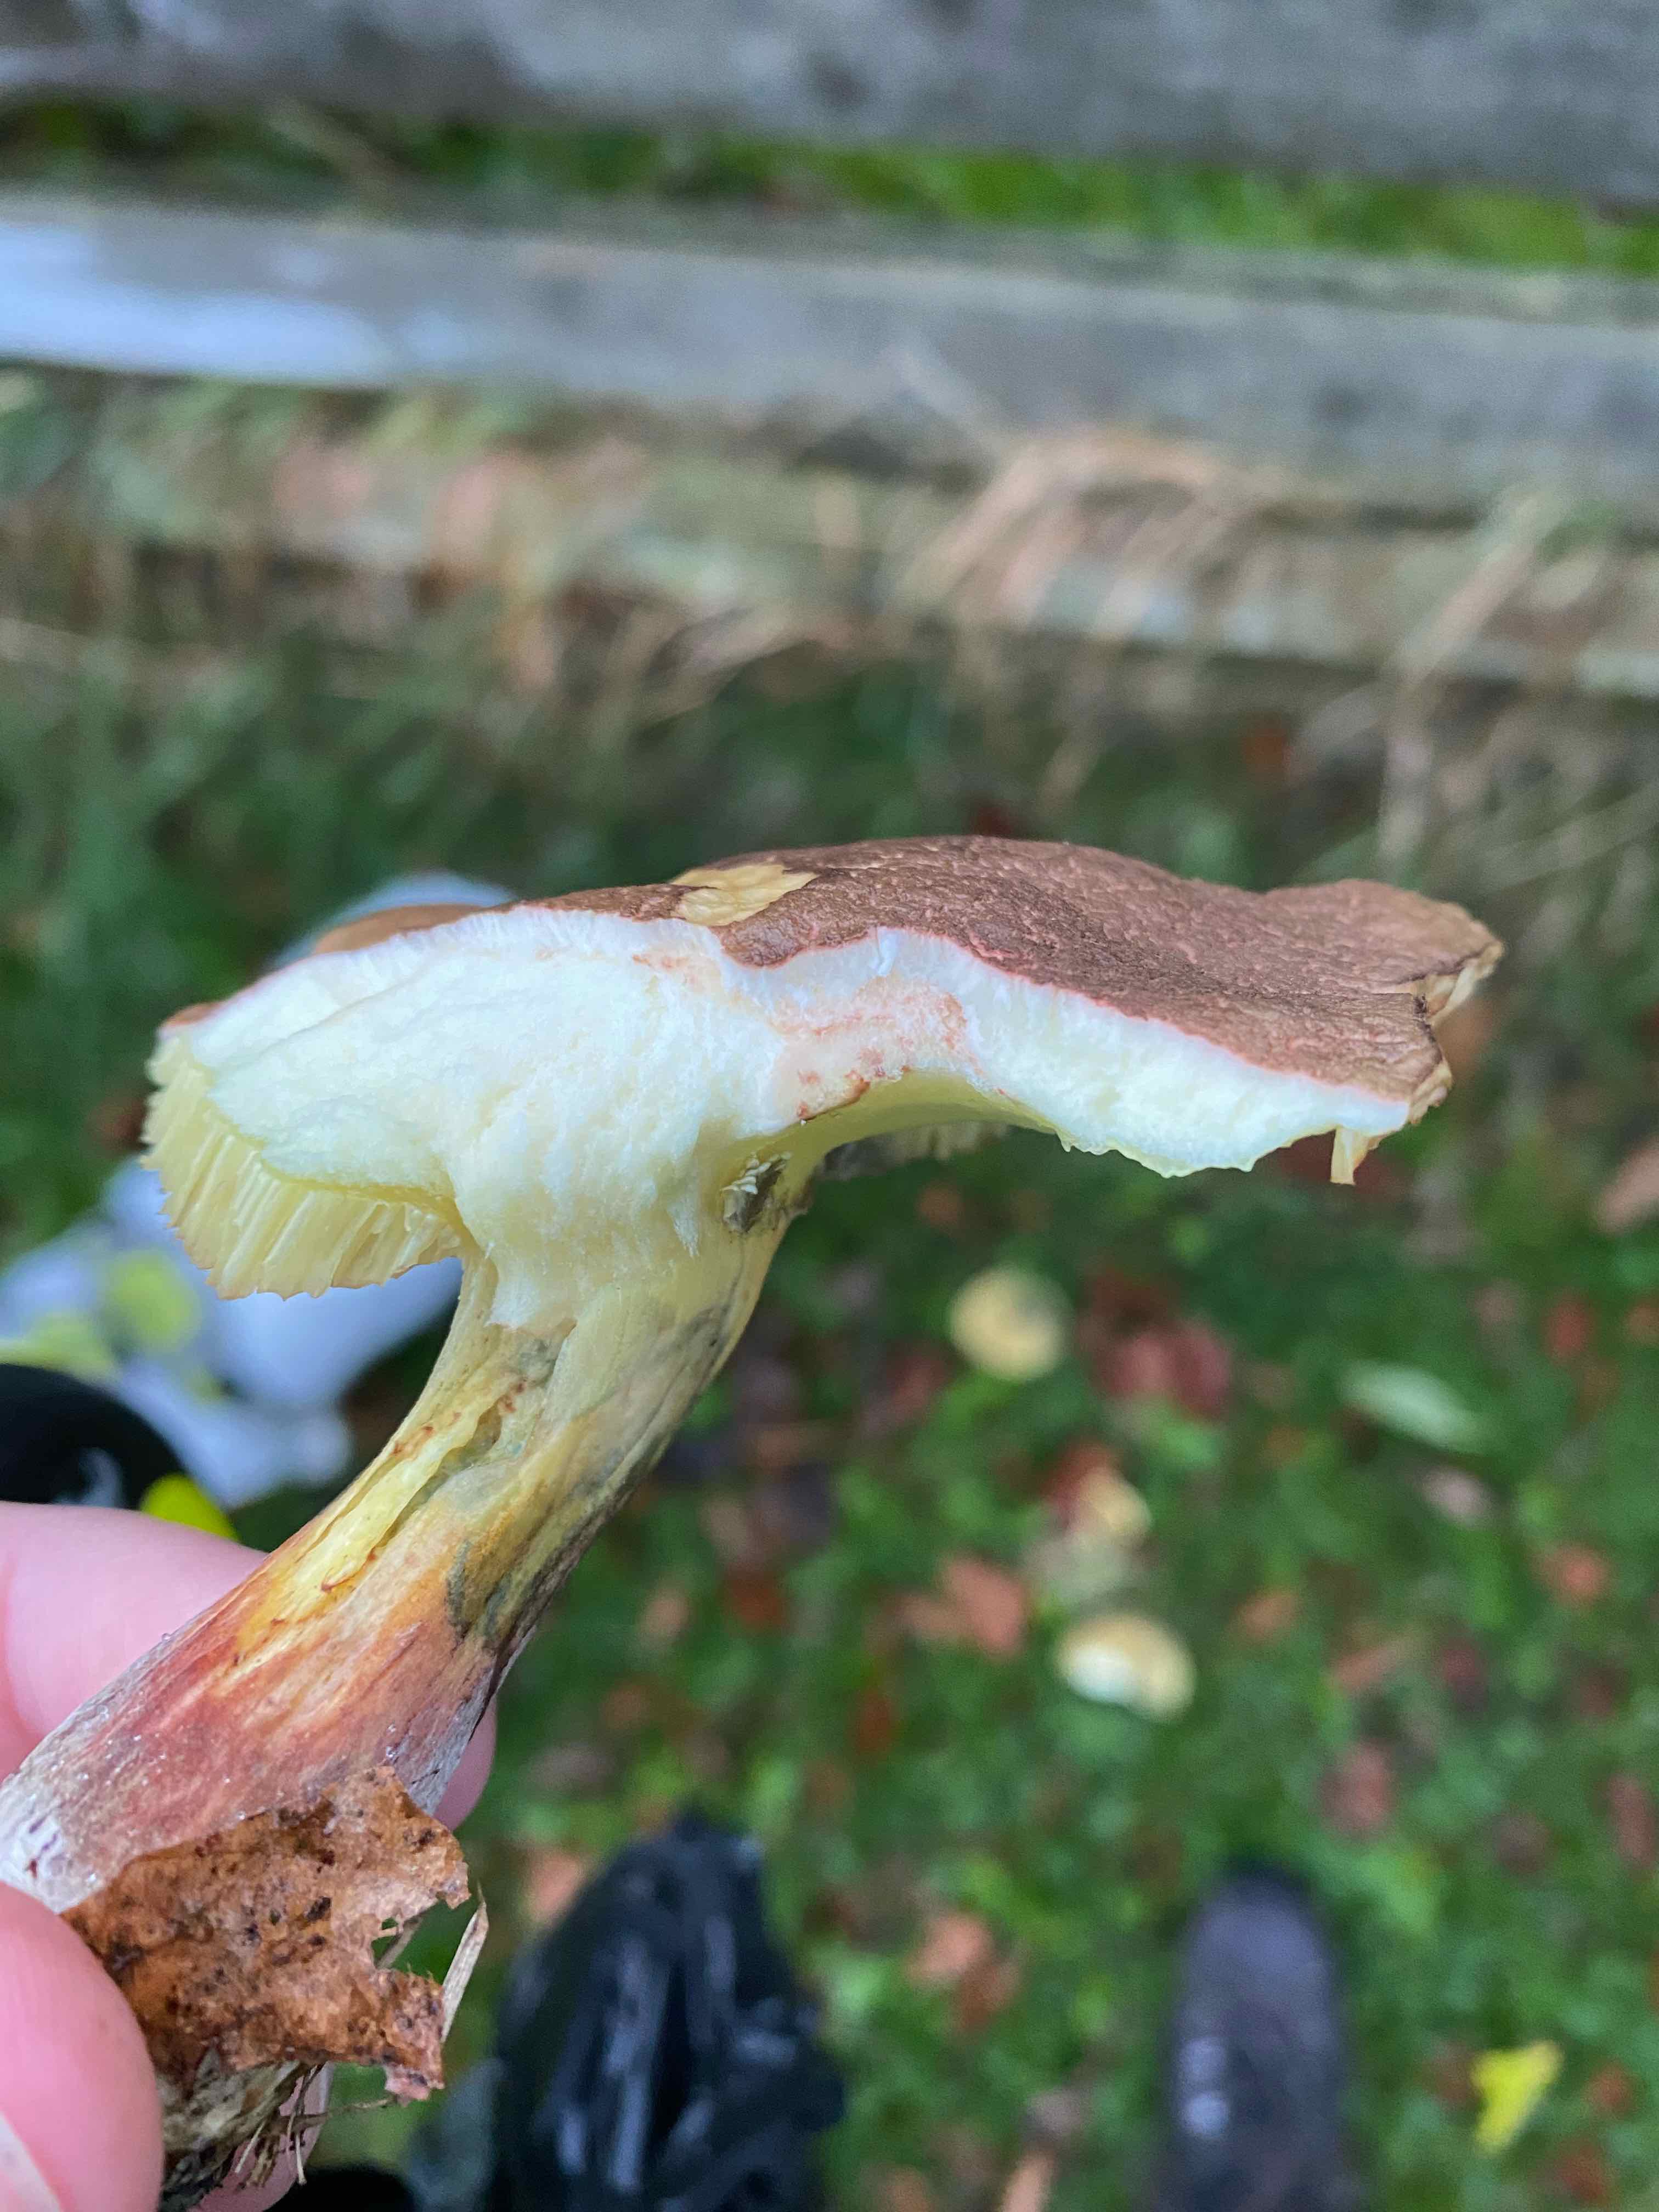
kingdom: Fungi
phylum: Basidiomycota
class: Agaricomycetes
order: Boletales
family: Boletaceae
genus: Xerocomellus
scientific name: Xerocomellus cisalpinus
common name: finsprukken rørhat
